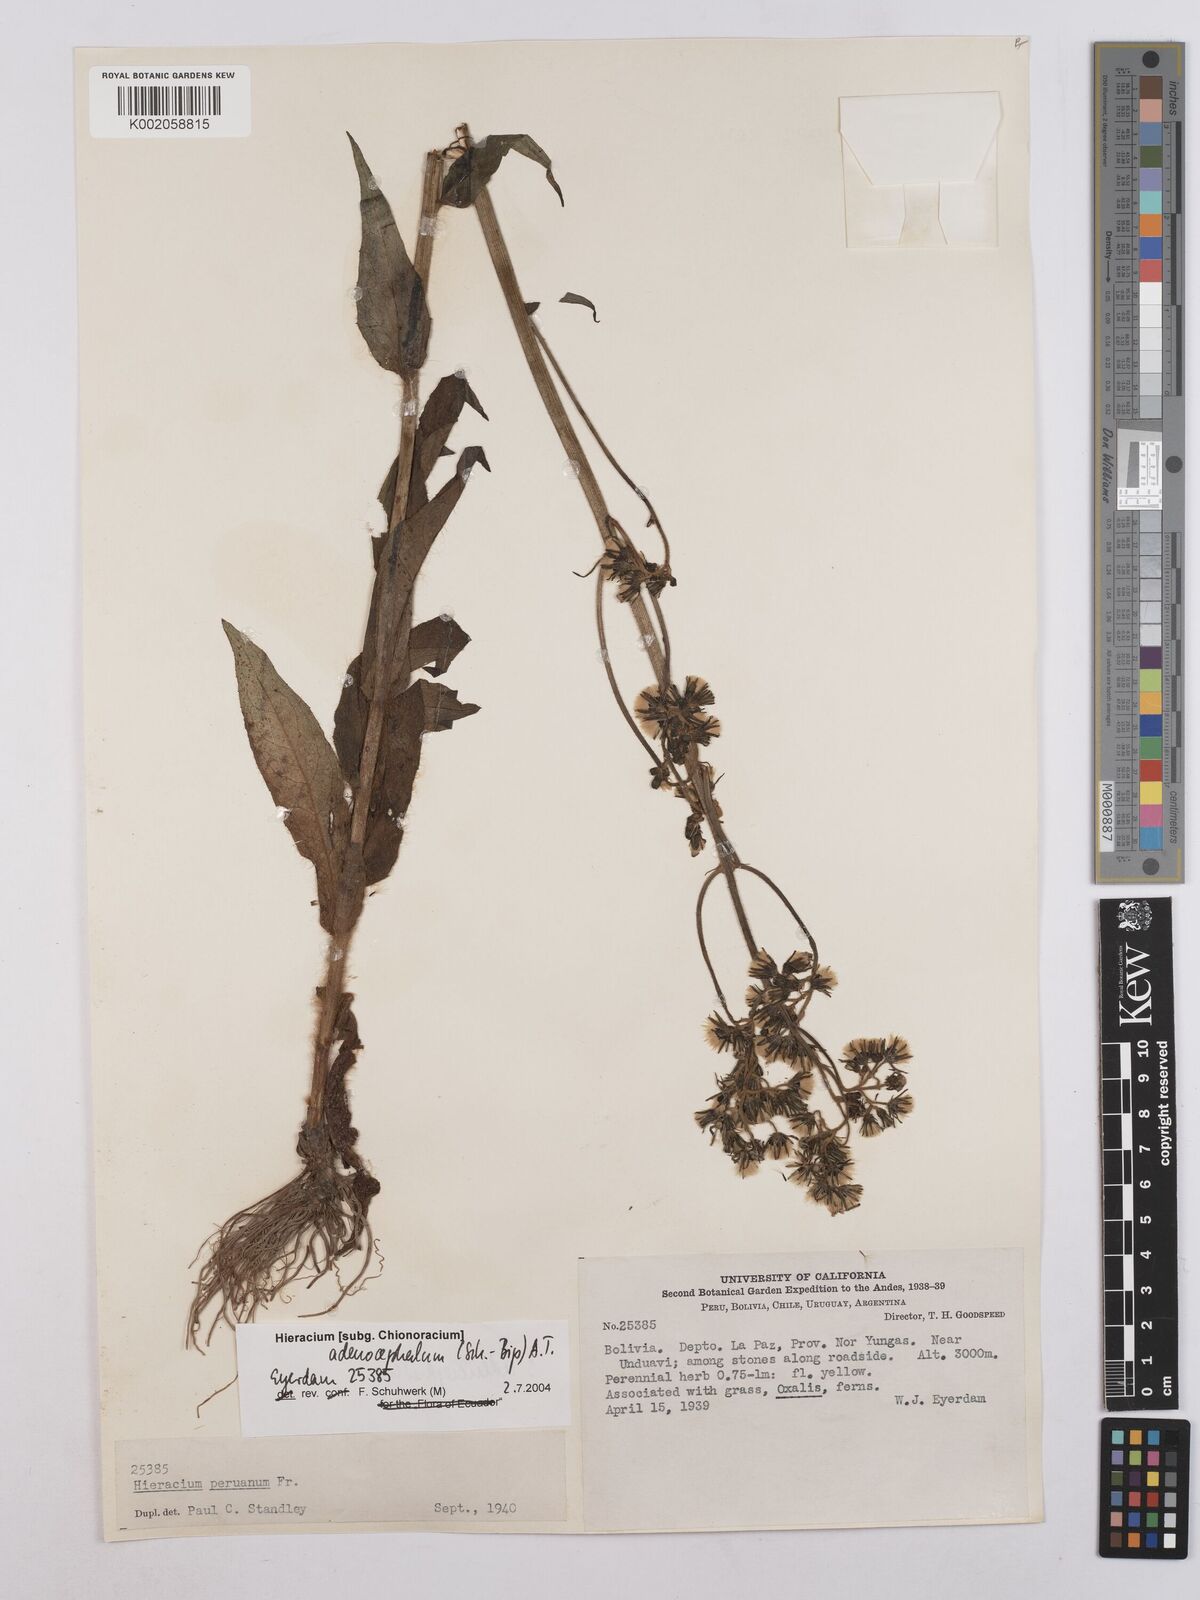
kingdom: Plantae
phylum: Tracheophyta
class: Magnoliopsida
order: Asterales
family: Asteraceae
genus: Hieracium
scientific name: Hieracium
